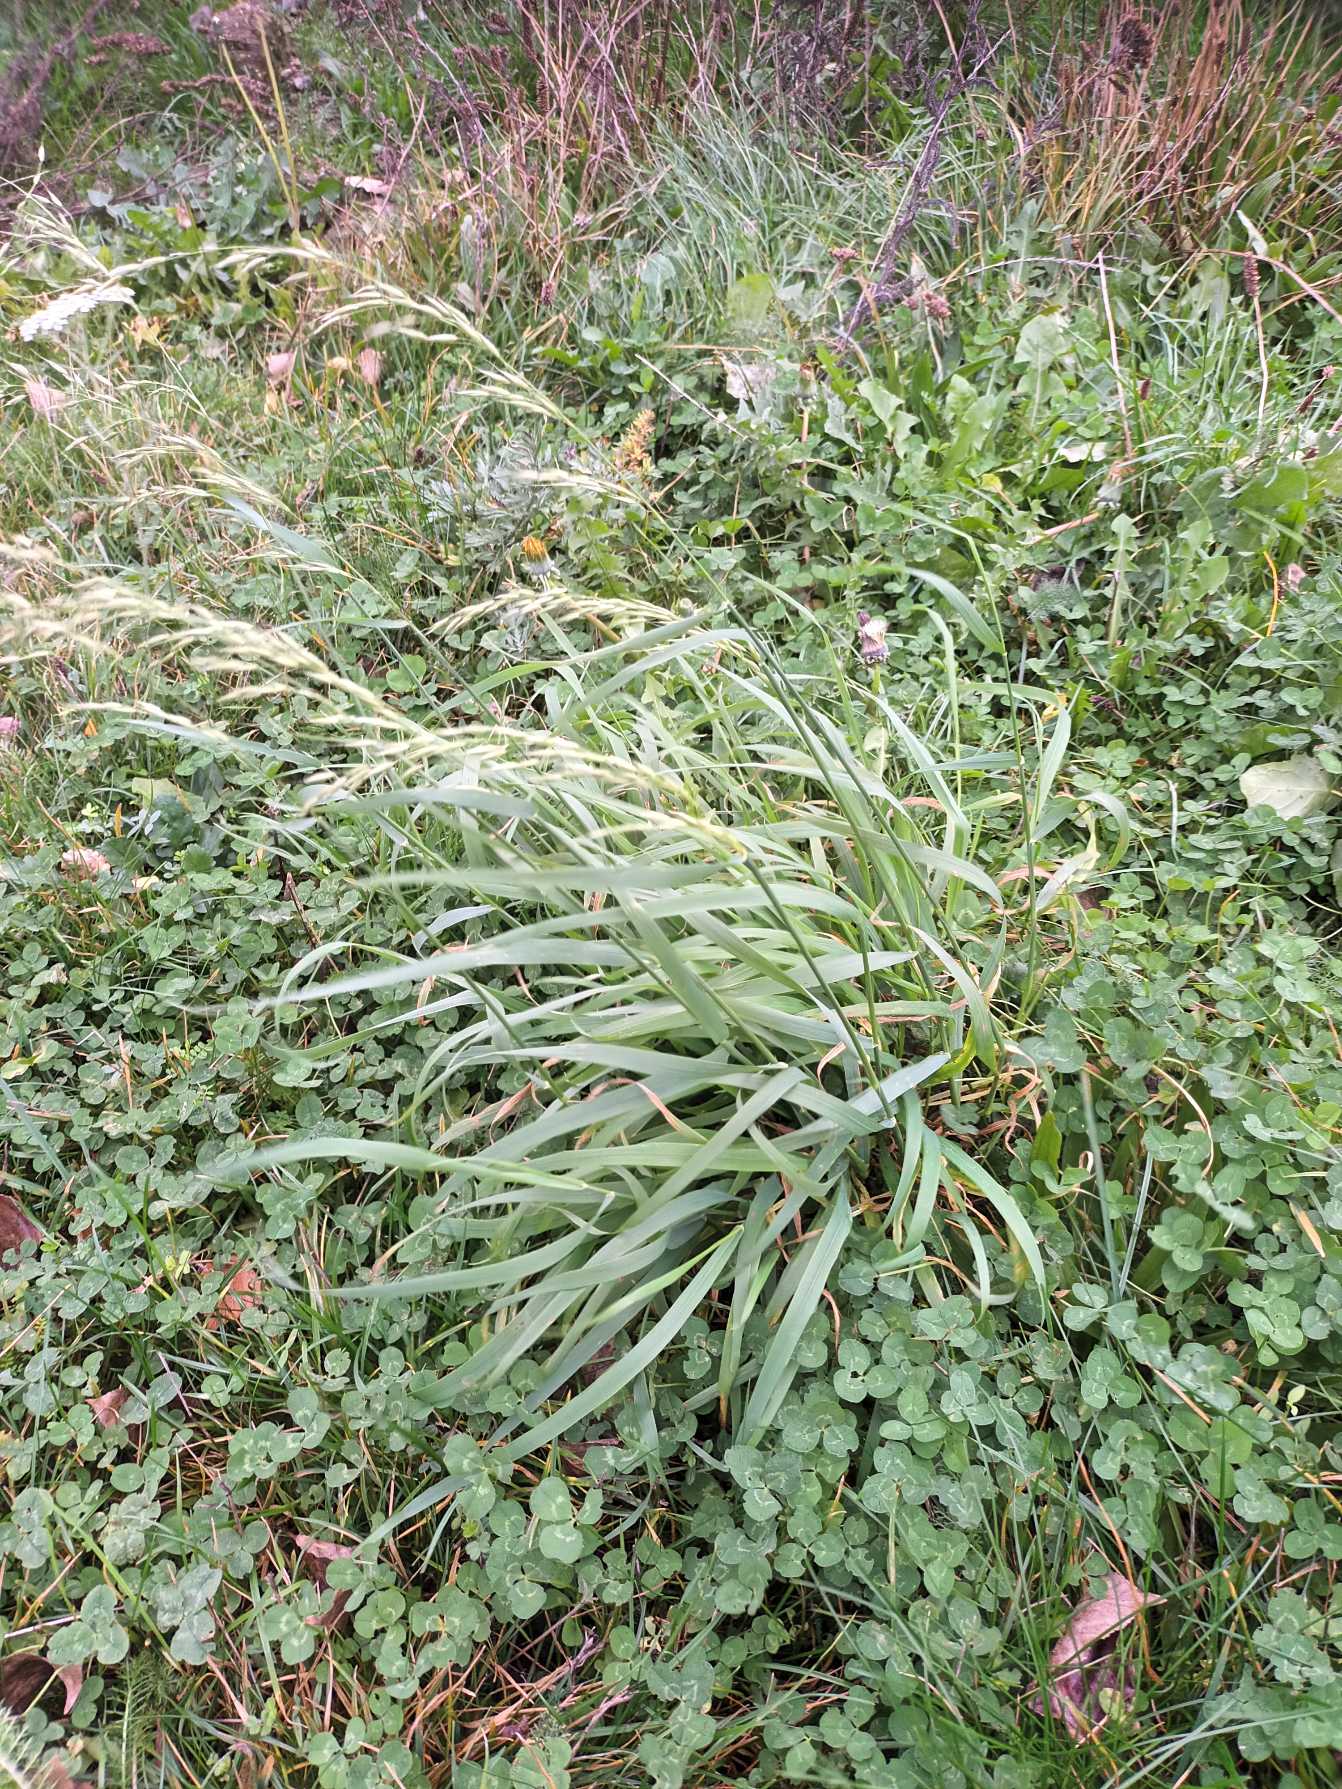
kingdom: Plantae
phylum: Tracheophyta
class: Liliopsida
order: Poales
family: Poaceae
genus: Arrhenatherum
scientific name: Arrhenatherum elatius
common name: Draphavre
